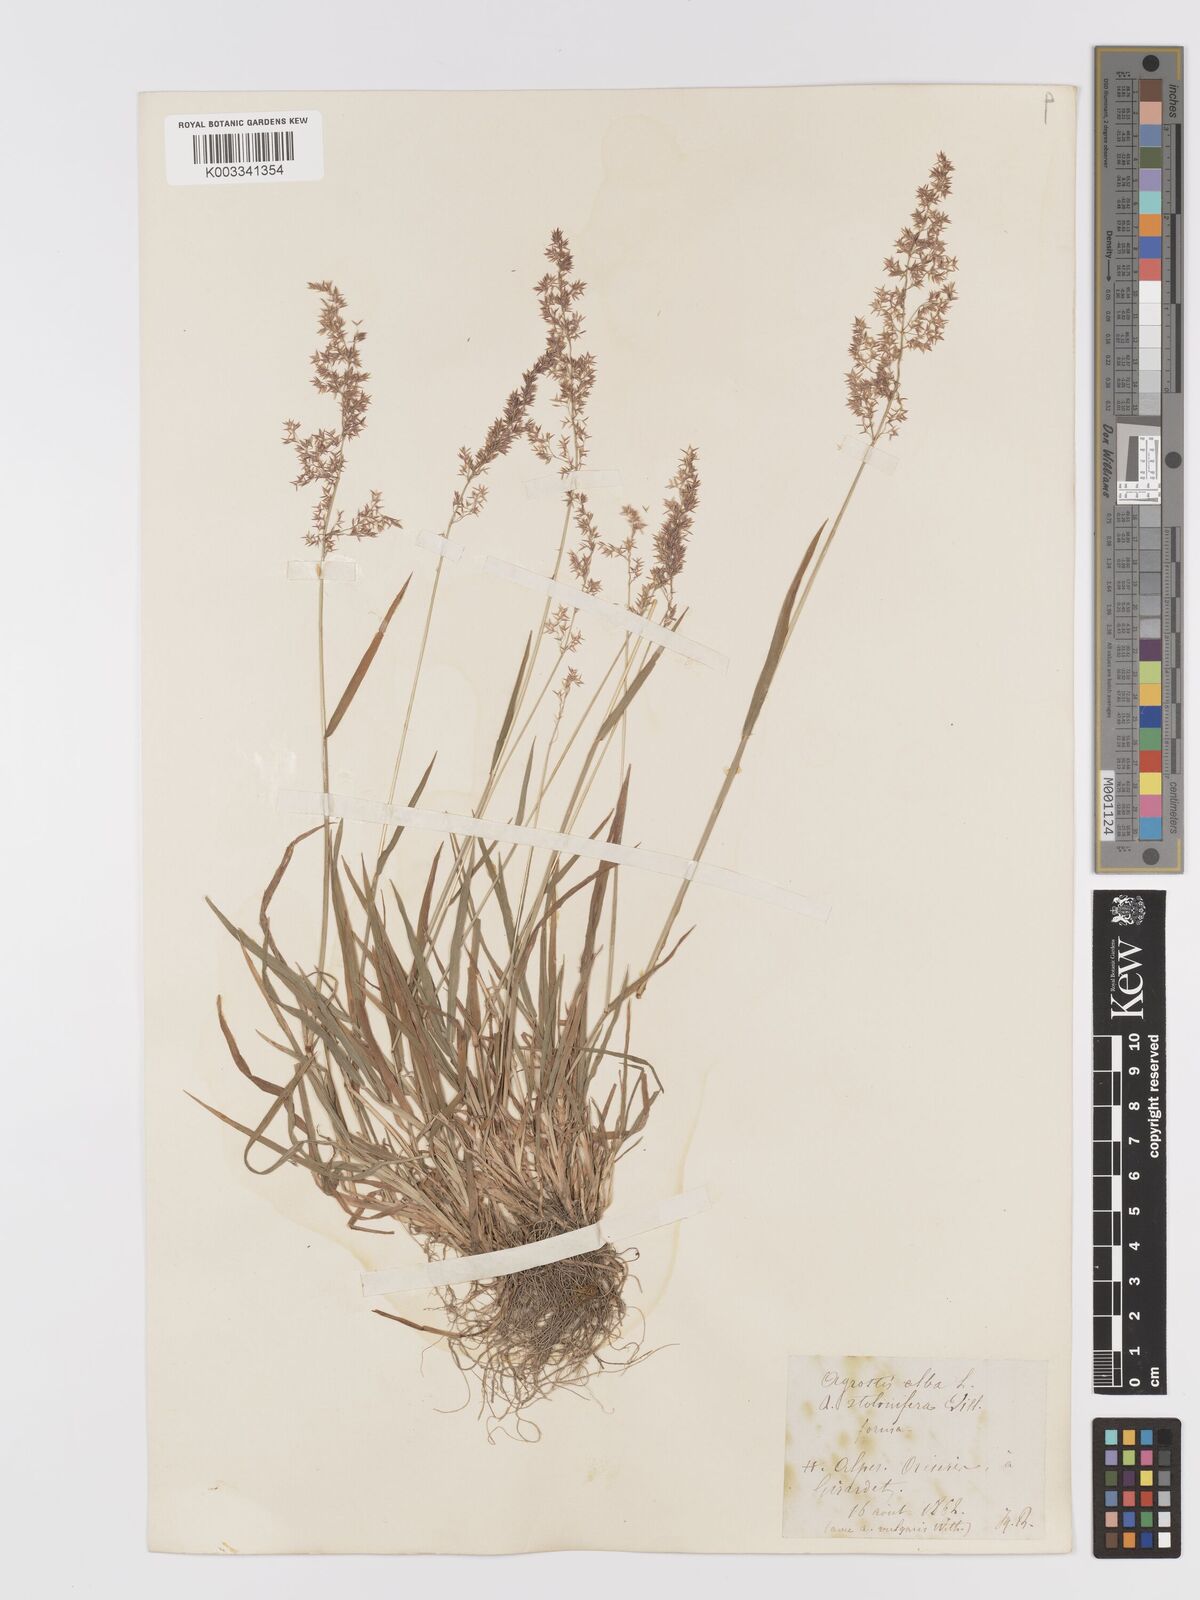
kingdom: Plantae
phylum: Tracheophyta
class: Liliopsida
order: Poales
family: Poaceae
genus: Agrostis
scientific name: Agrostis gigantea
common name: Black bent
